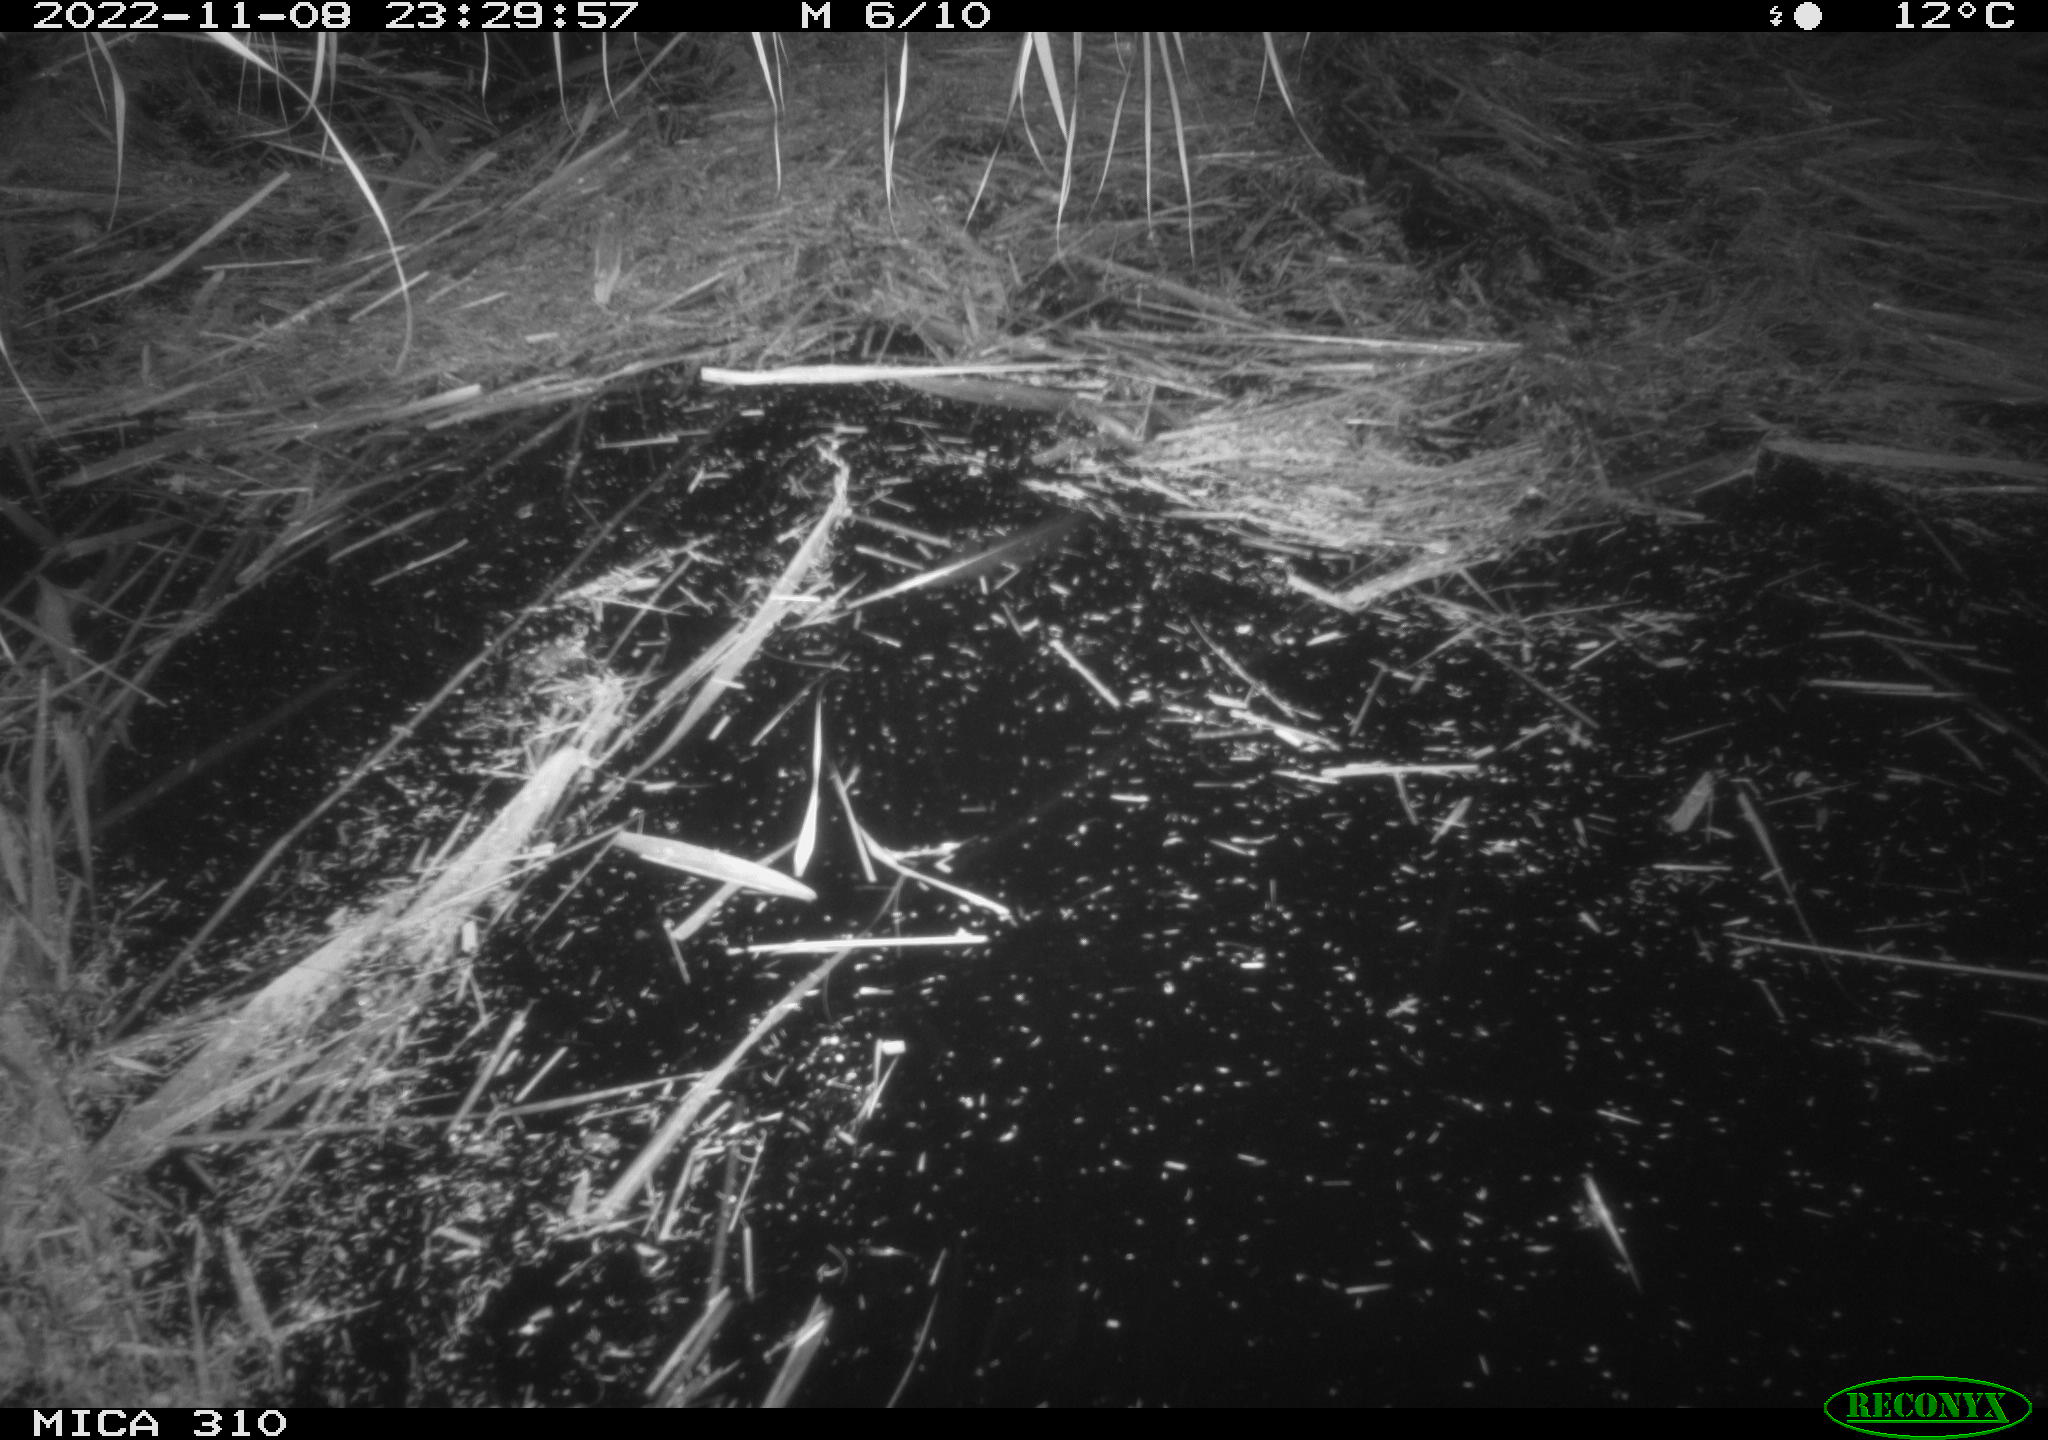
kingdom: Animalia
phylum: Chordata
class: Mammalia
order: Rodentia
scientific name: Rodentia
